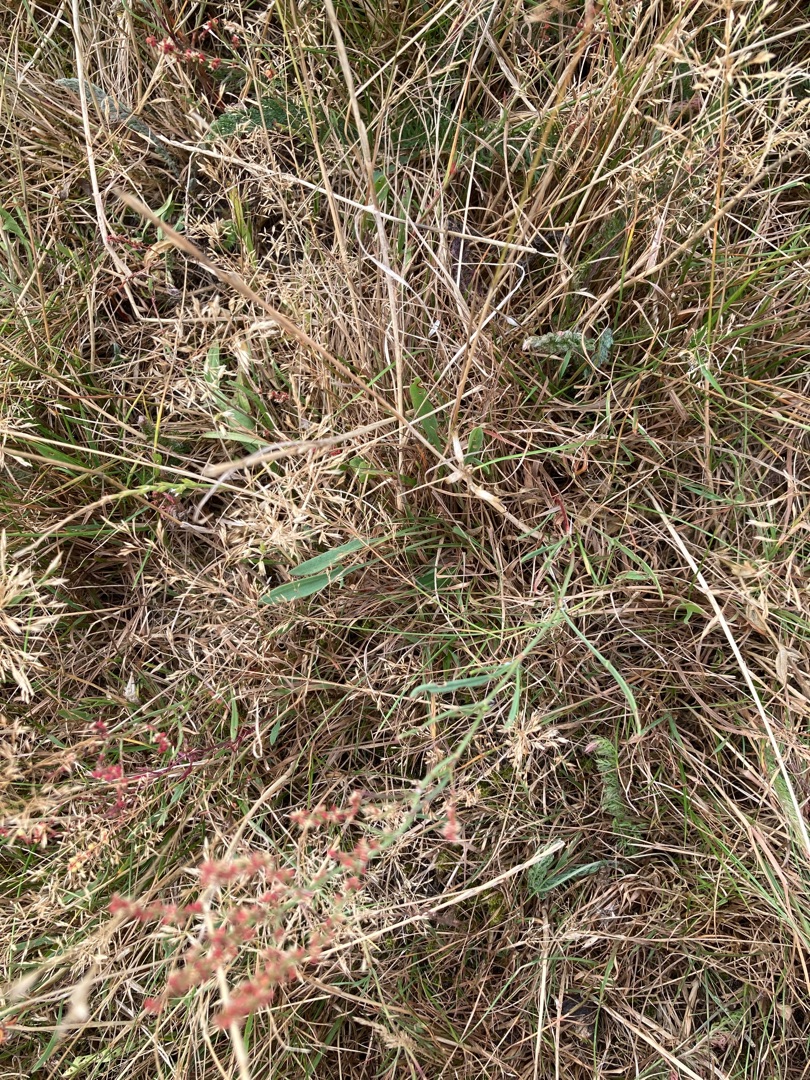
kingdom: Plantae
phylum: Tracheophyta
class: Magnoliopsida
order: Caryophyllales
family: Polygonaceae
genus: Rumex
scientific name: Rumex acetosella
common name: Rødknæ
